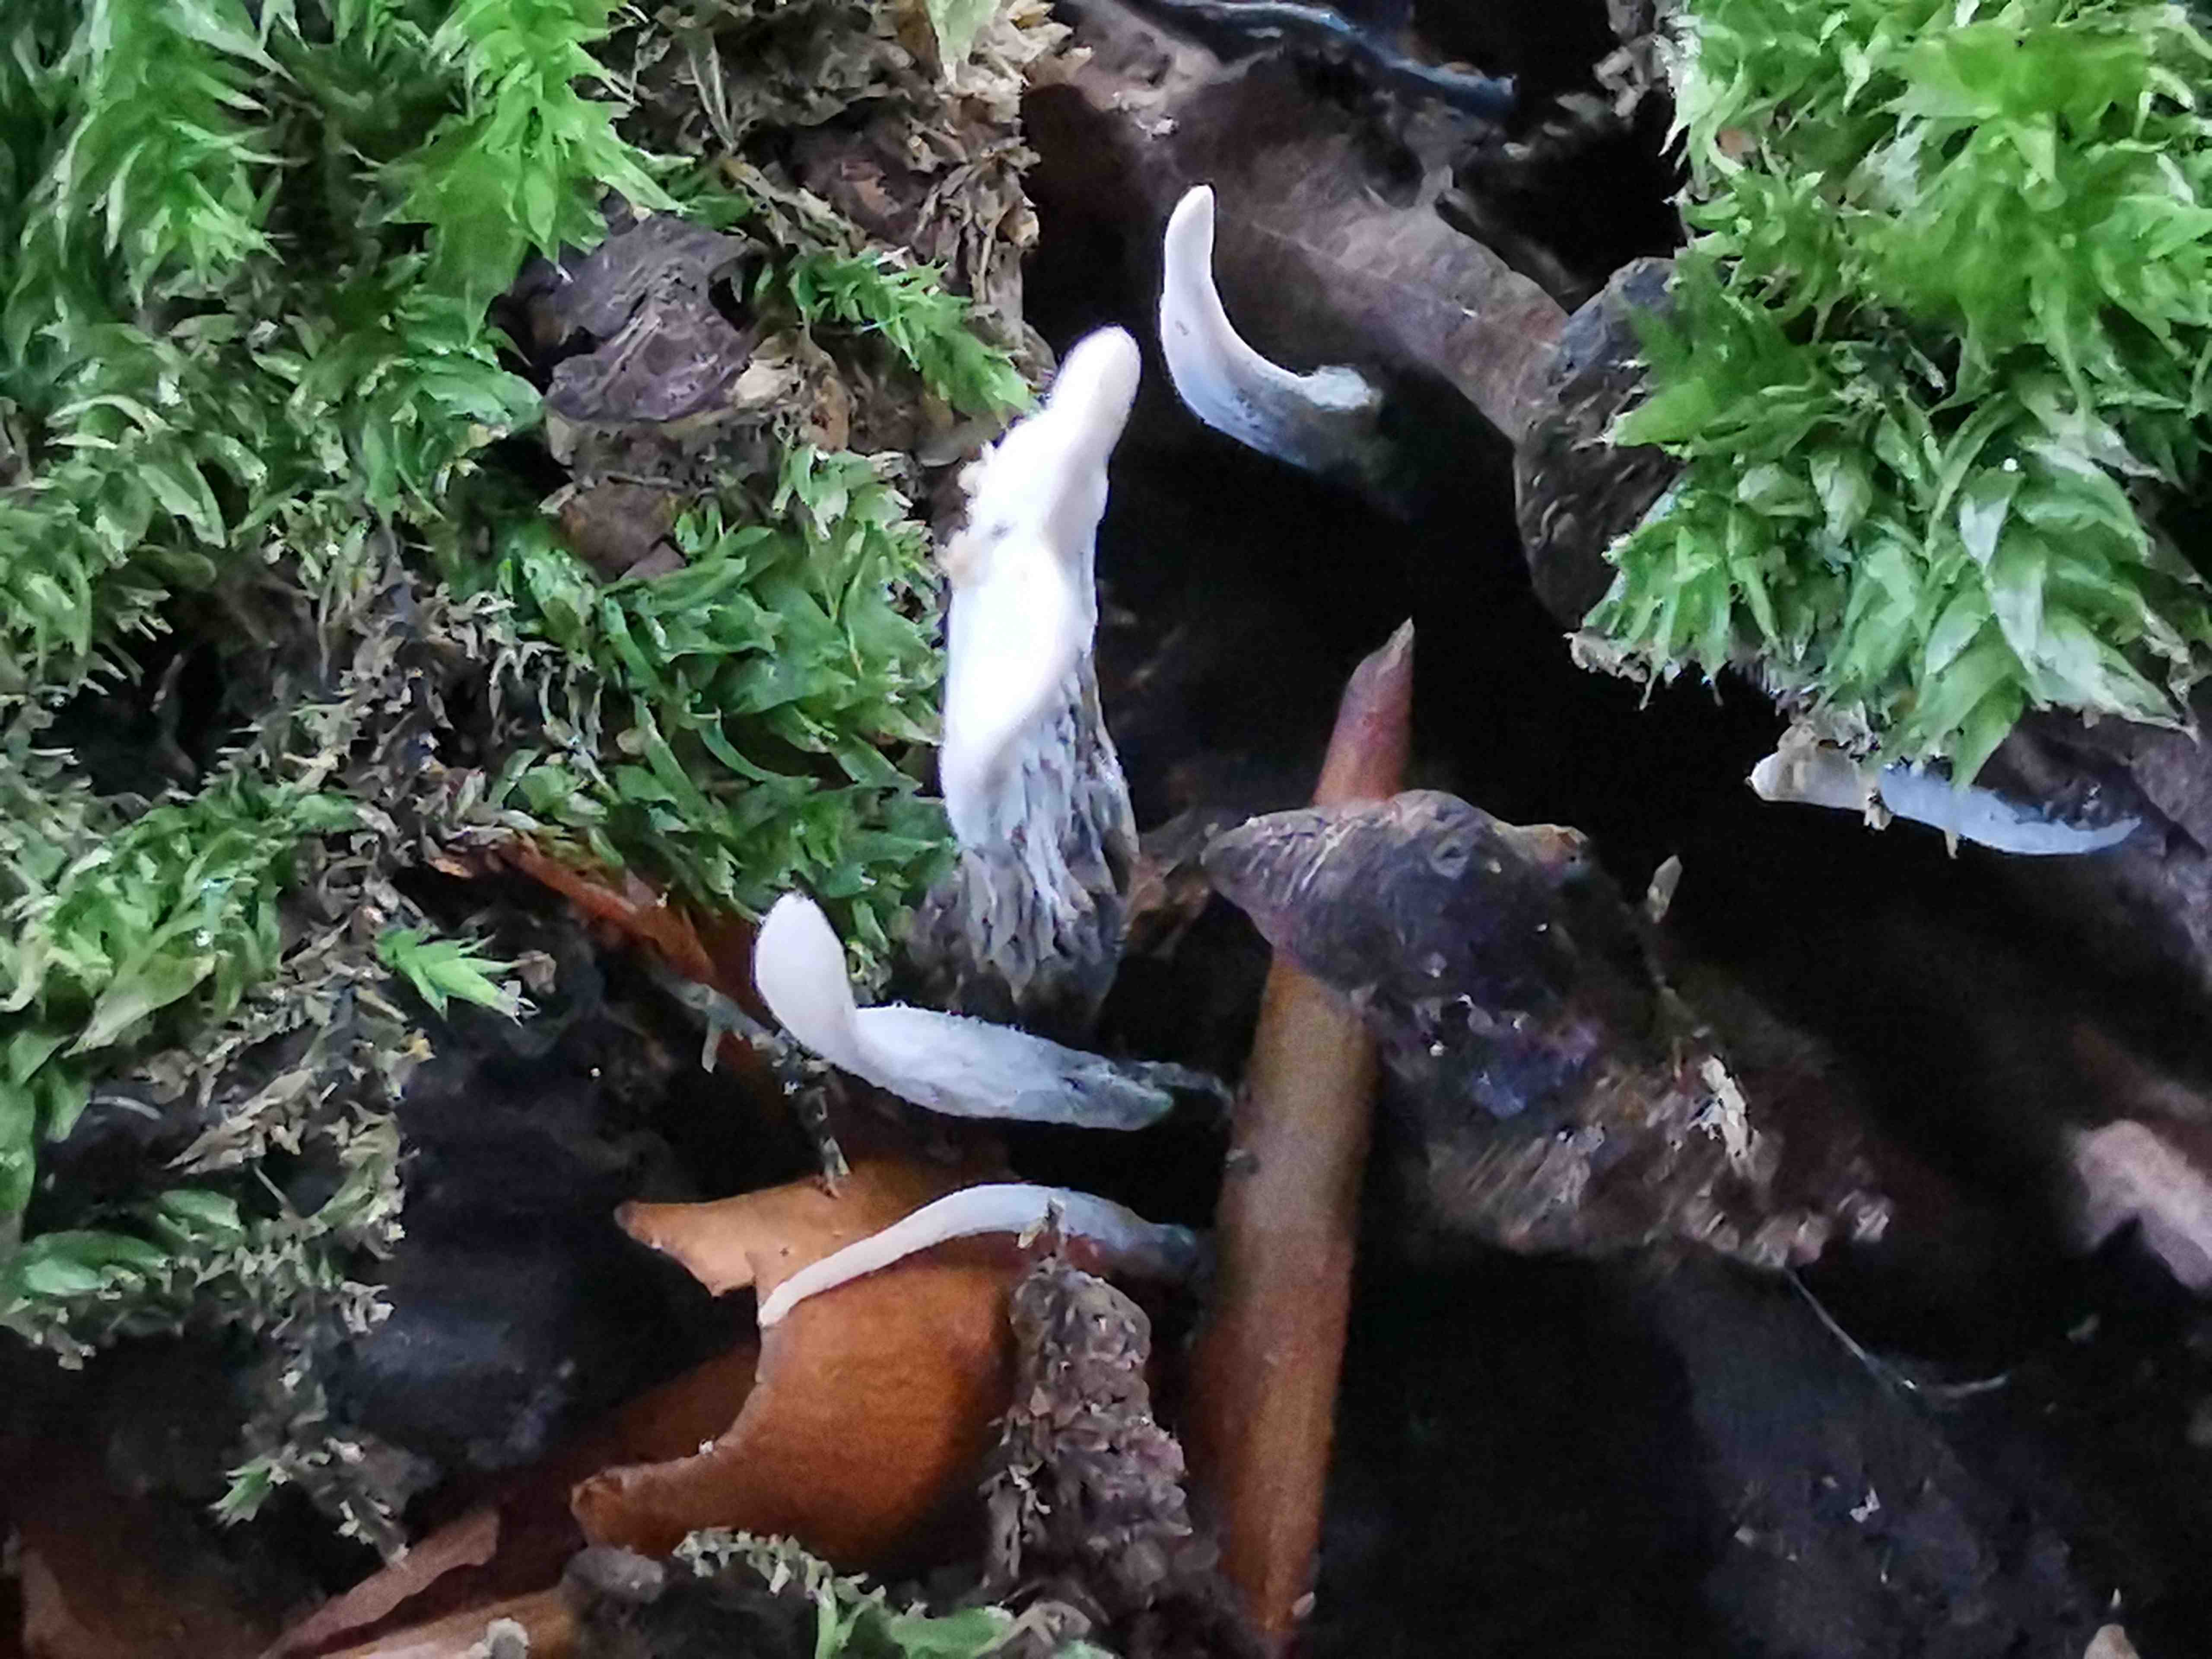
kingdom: Fungi
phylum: Ascomycota
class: Sordariomycetes
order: Xylariales
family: Xylariaceae
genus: Xylaria
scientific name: Xylaria hypoxylon
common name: grenet stødsvamp
